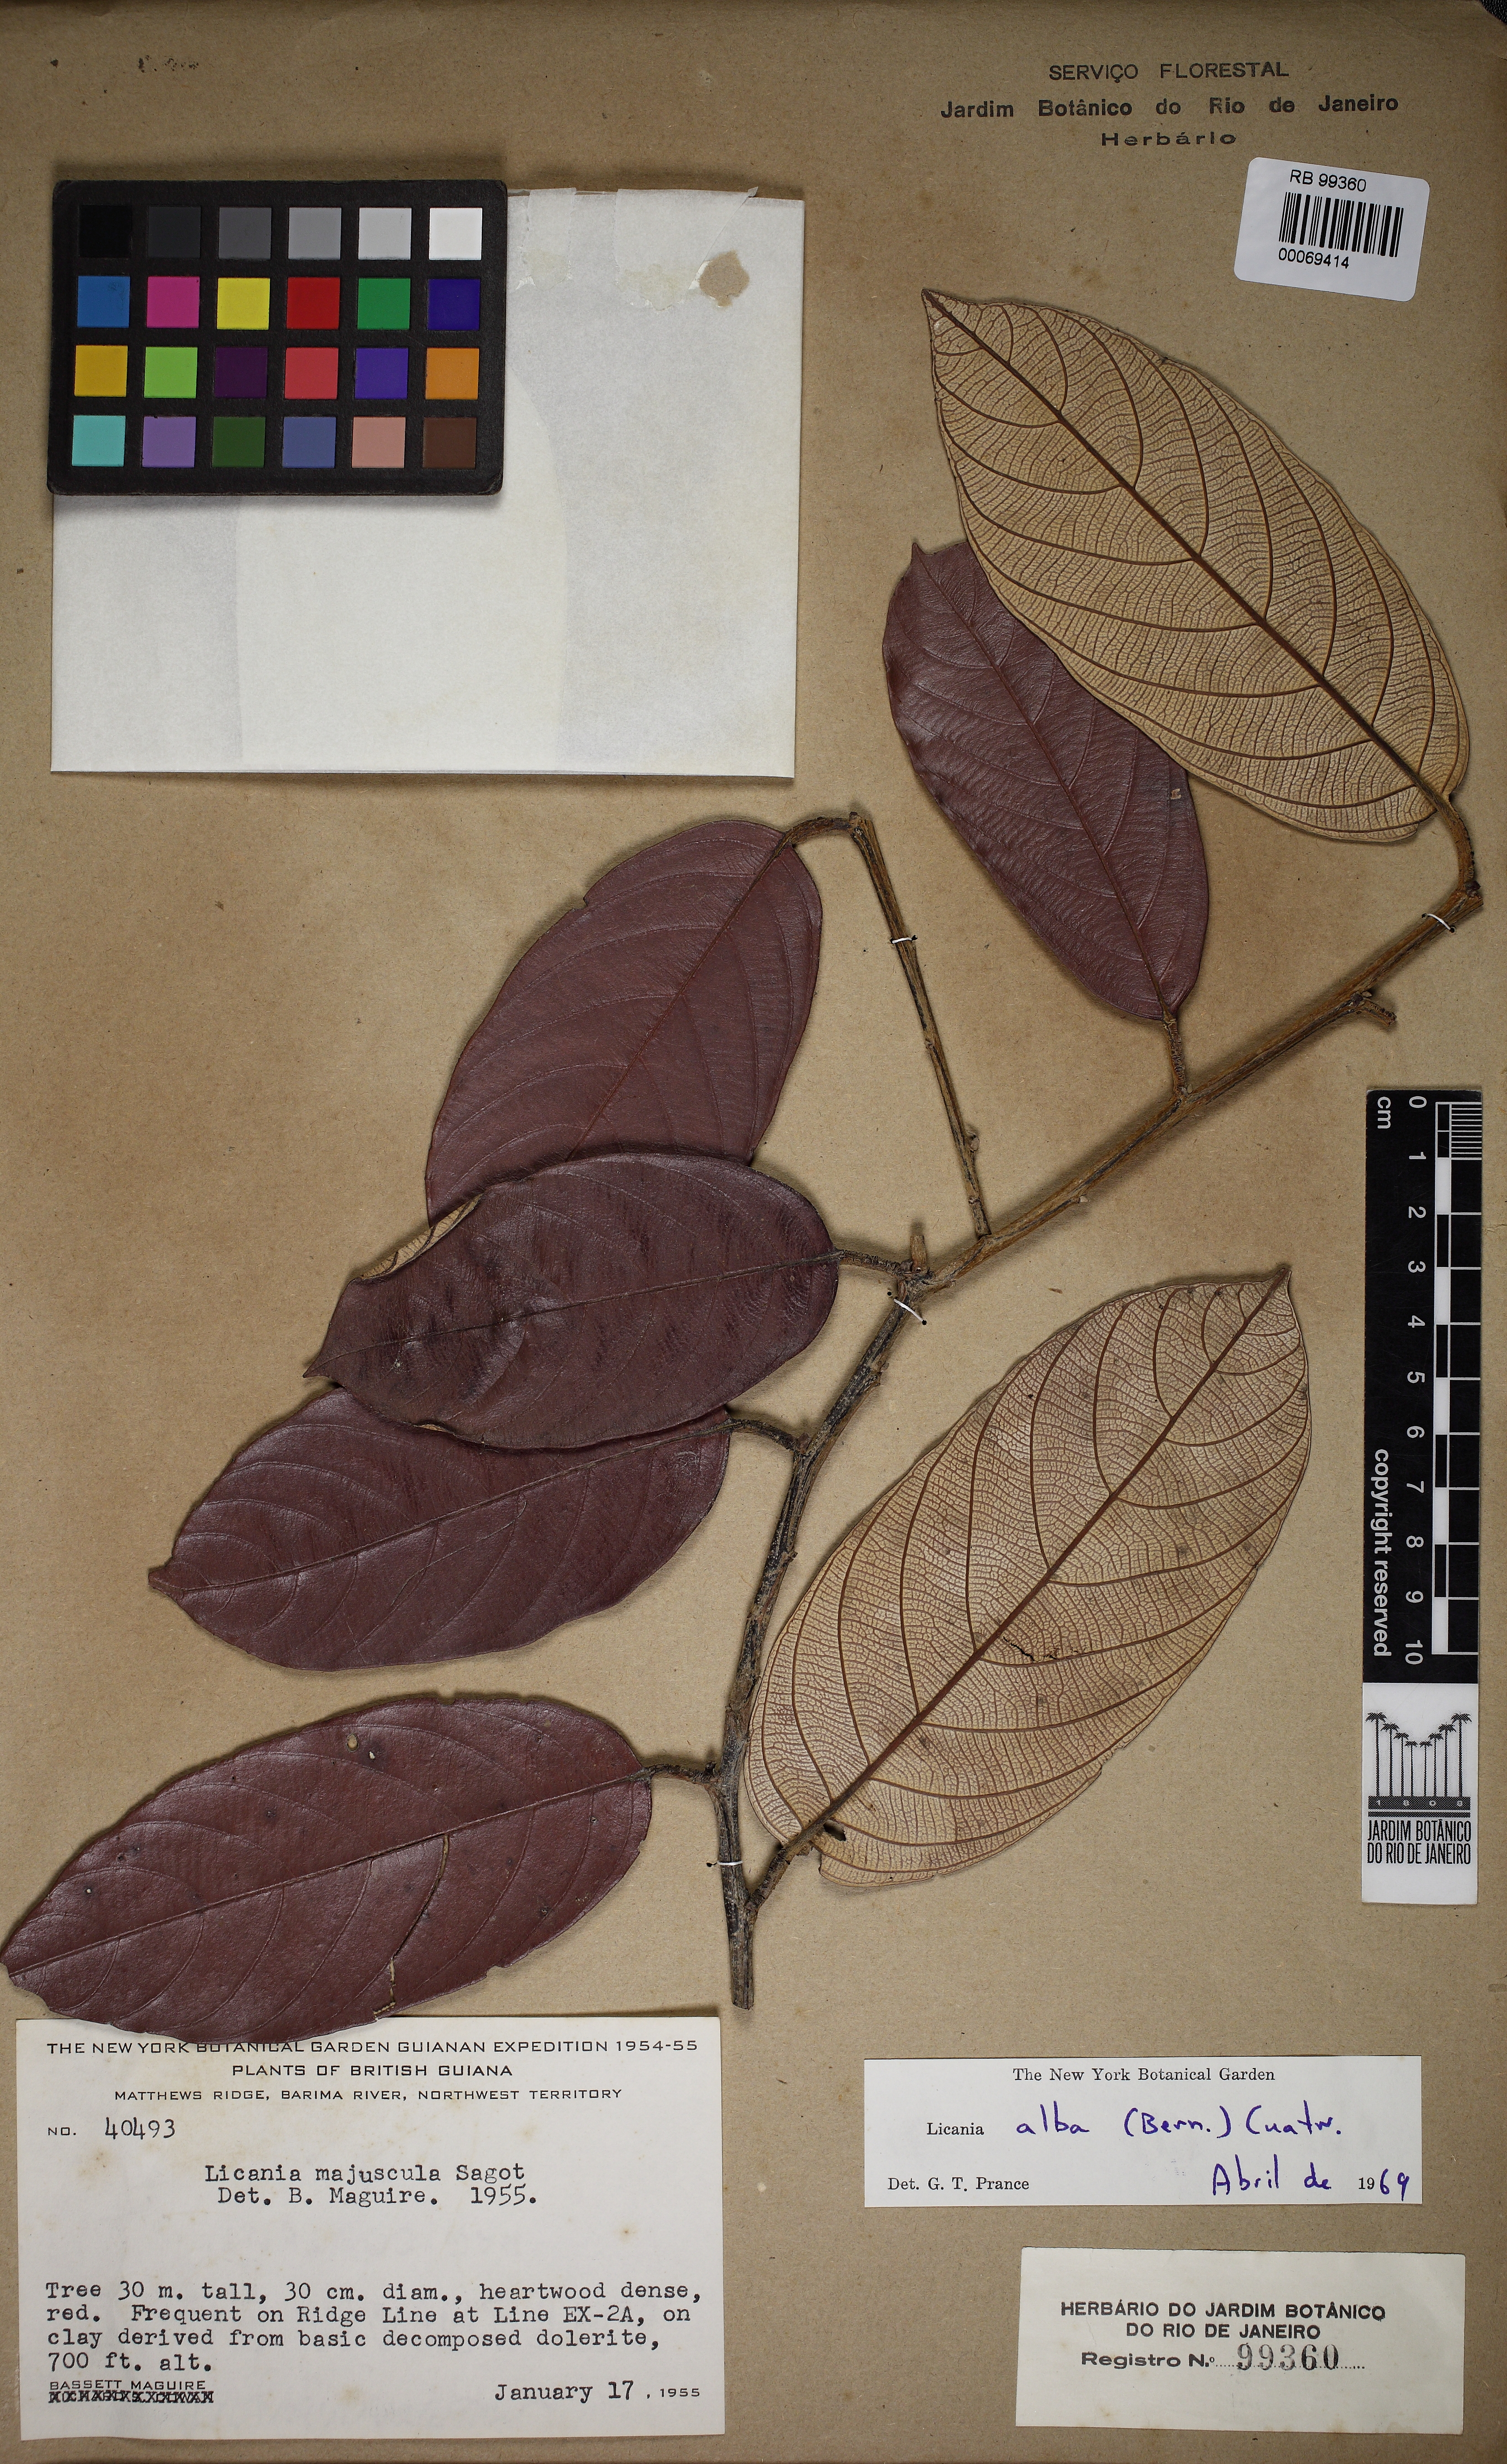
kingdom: Plantae
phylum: Tracheophyta
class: Magnoliopsida
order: Malpighiales
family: Chrysobalanaceae
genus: Licania
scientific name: Licania alba
